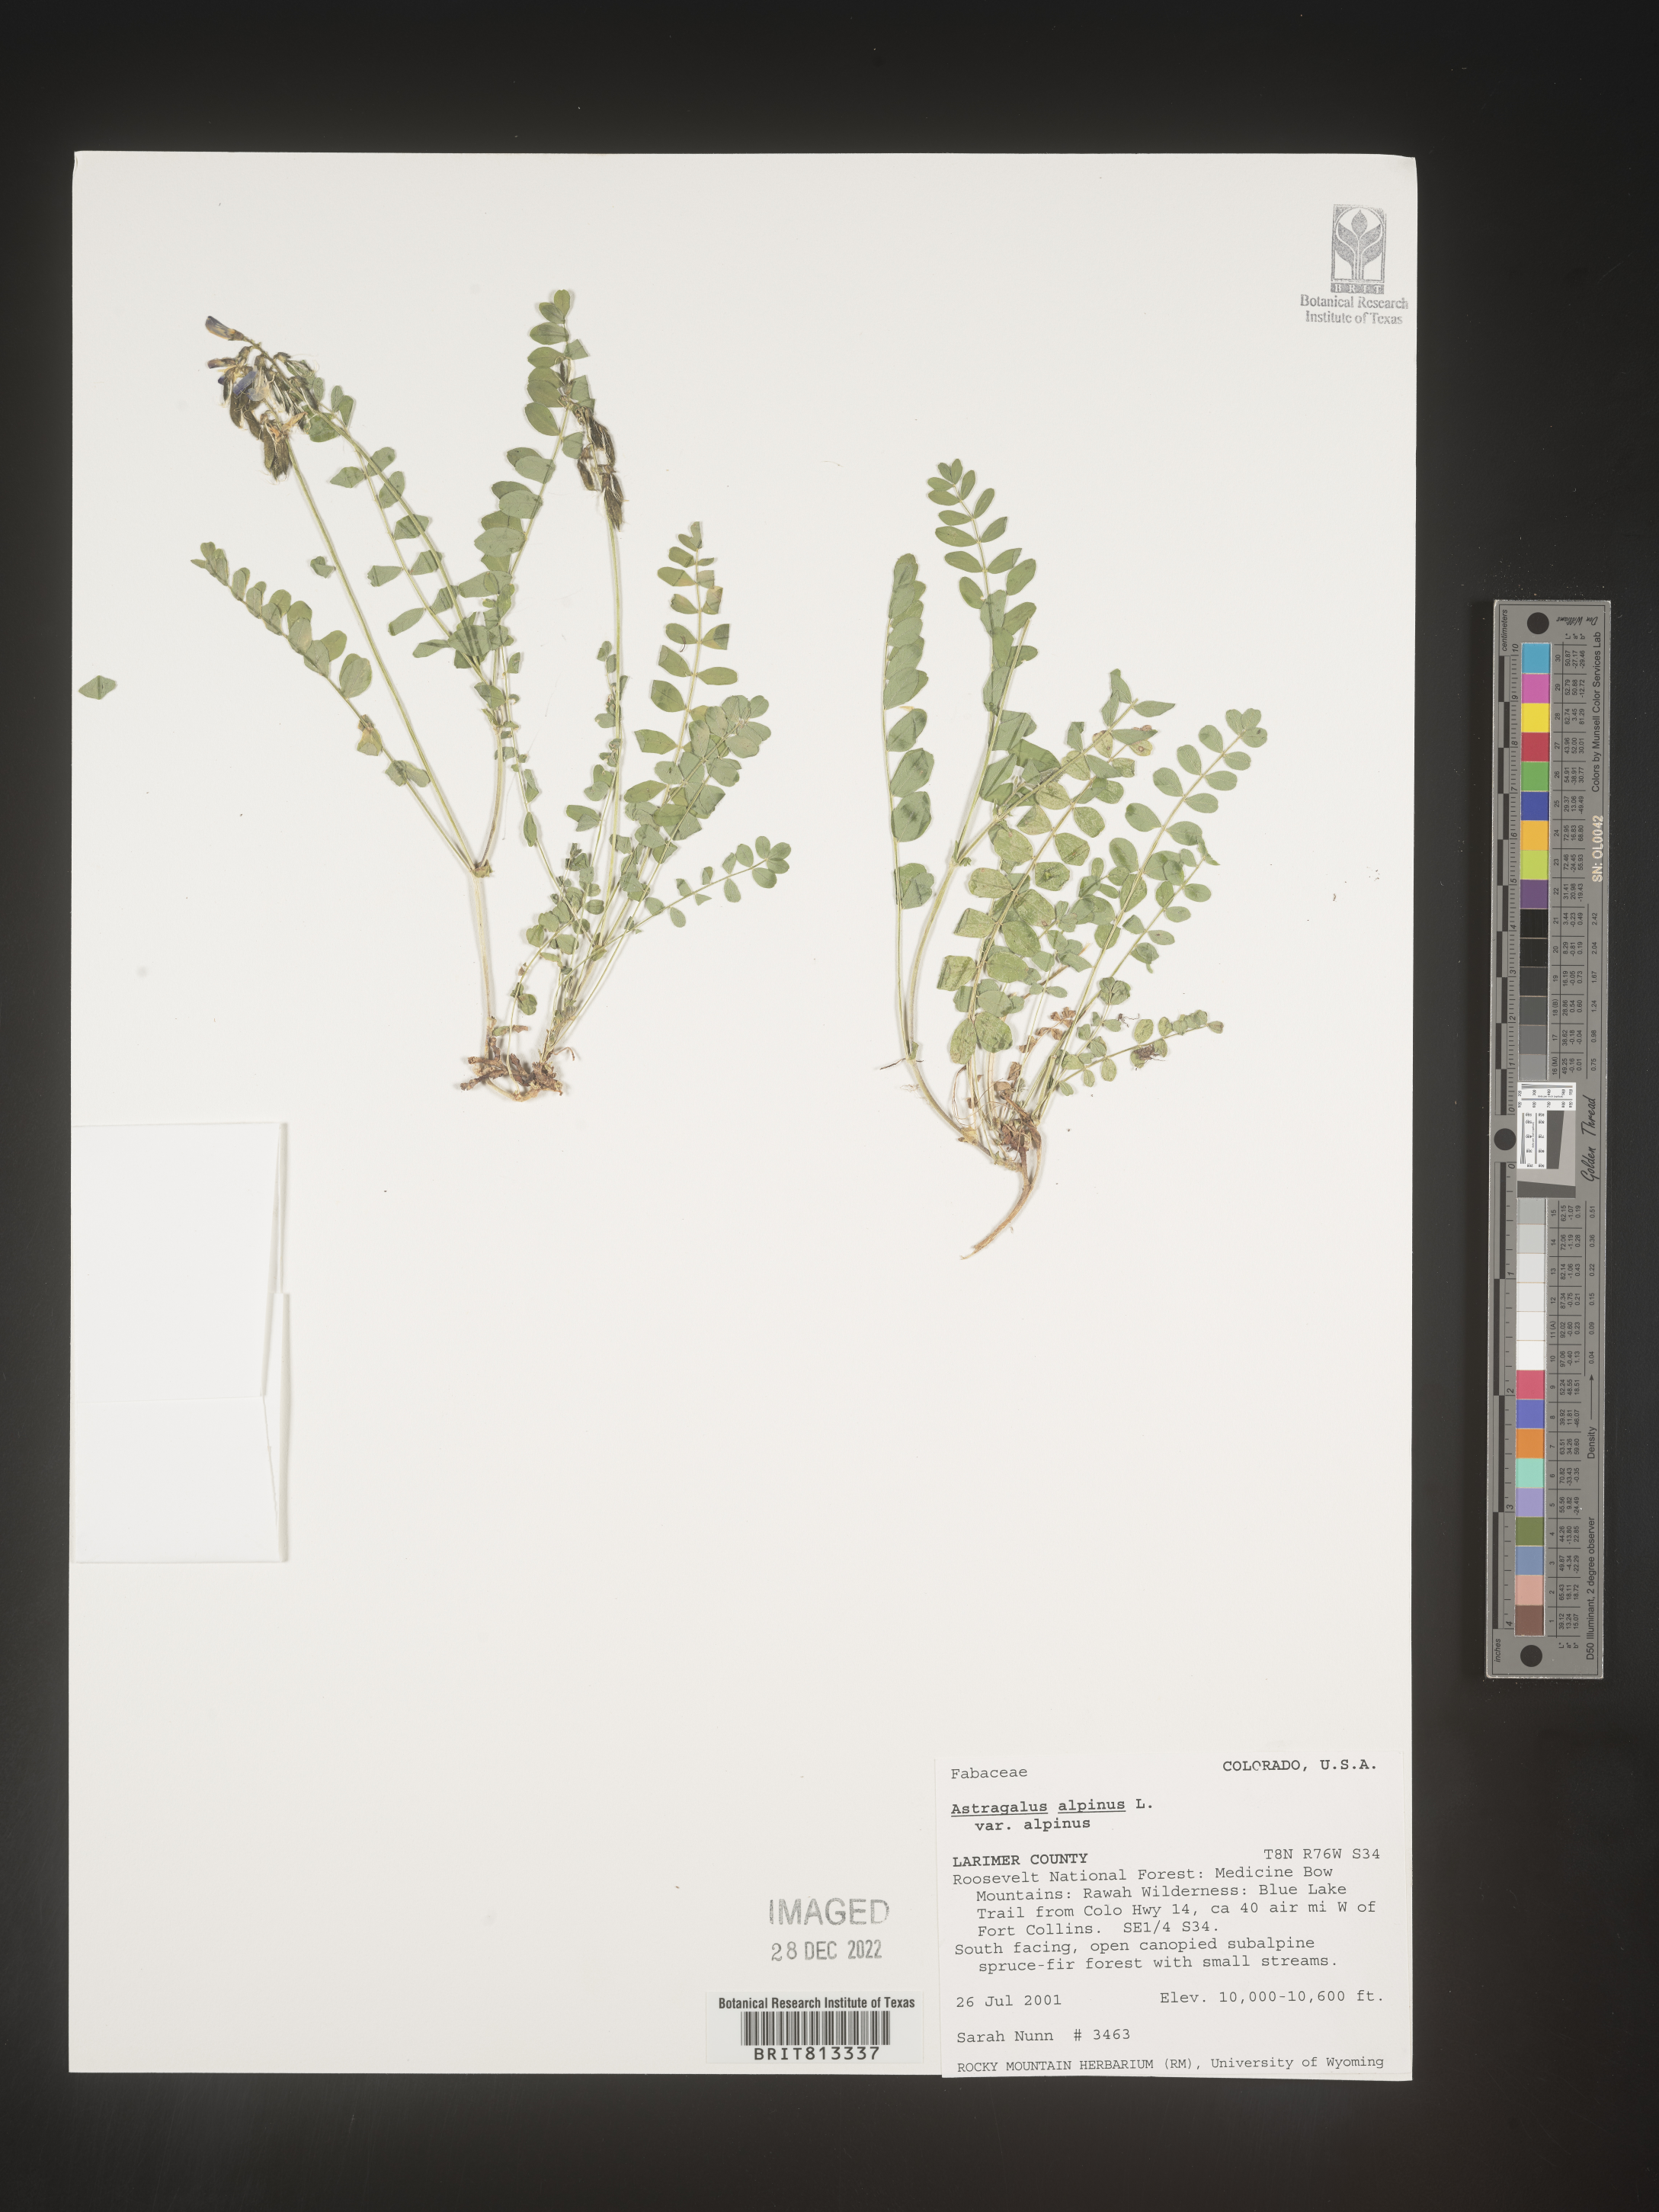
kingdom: Plantae
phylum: Tracheophyta
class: Magnoliopsida
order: Fabales
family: Fabaceae
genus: Astragalus
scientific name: Astragalus alpinus
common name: Alpine milk-vetch
